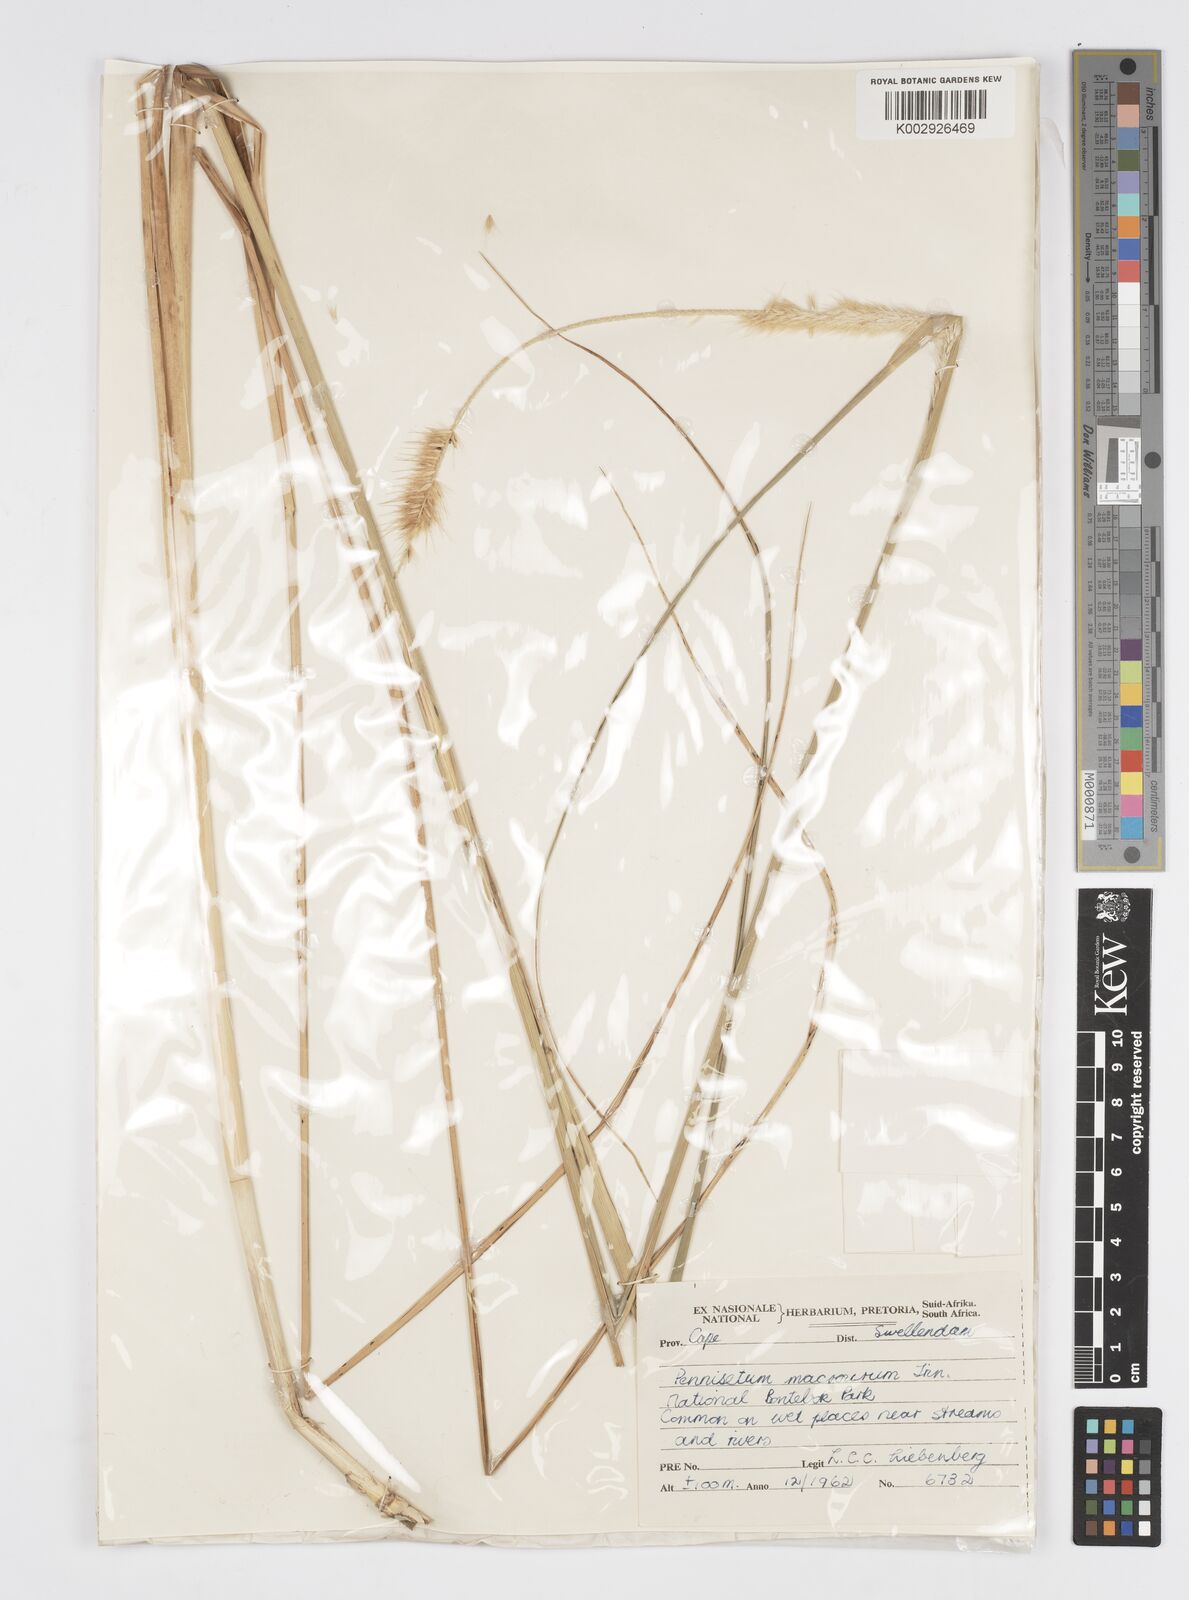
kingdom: Plantae
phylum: Tracheophyta
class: Liliopsida
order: Poales
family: Poaceae
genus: Cenchrus
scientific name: Cenchrus caudatus
